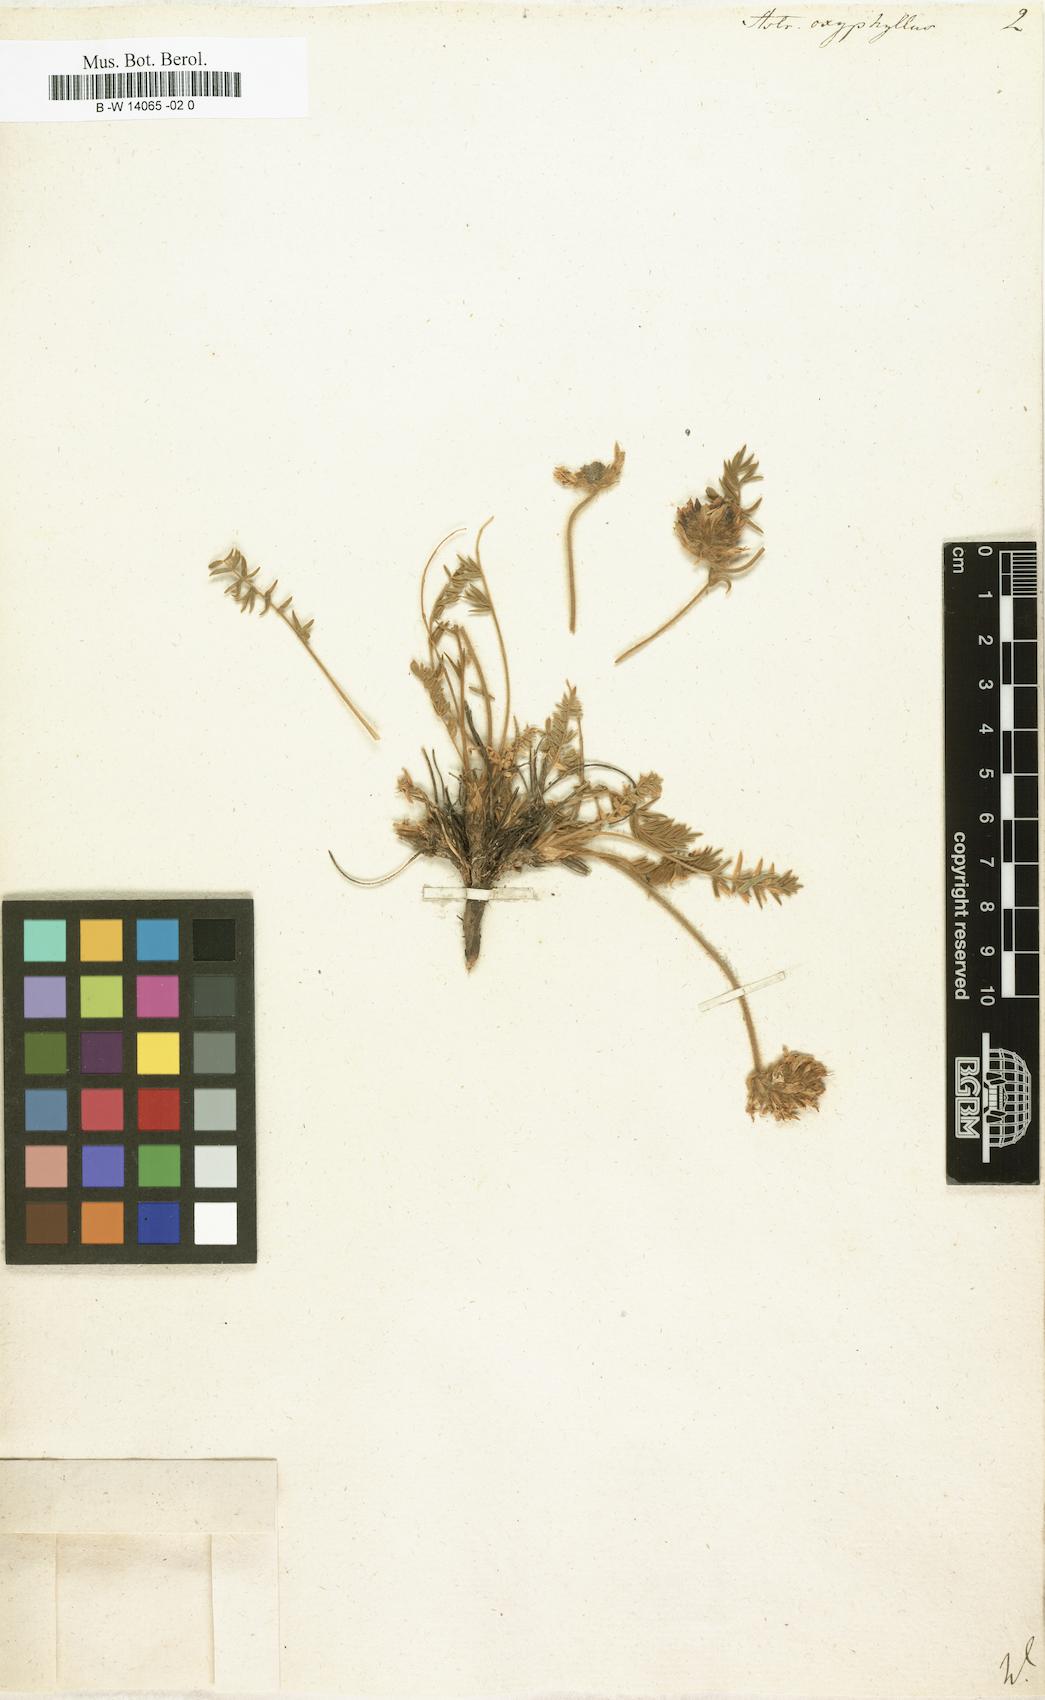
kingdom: Plantae
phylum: Tracheophyta
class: Magnoliopsida
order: Fabales
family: Fabaceae
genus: Oxytropis
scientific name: Oxytropis oxyphylla
